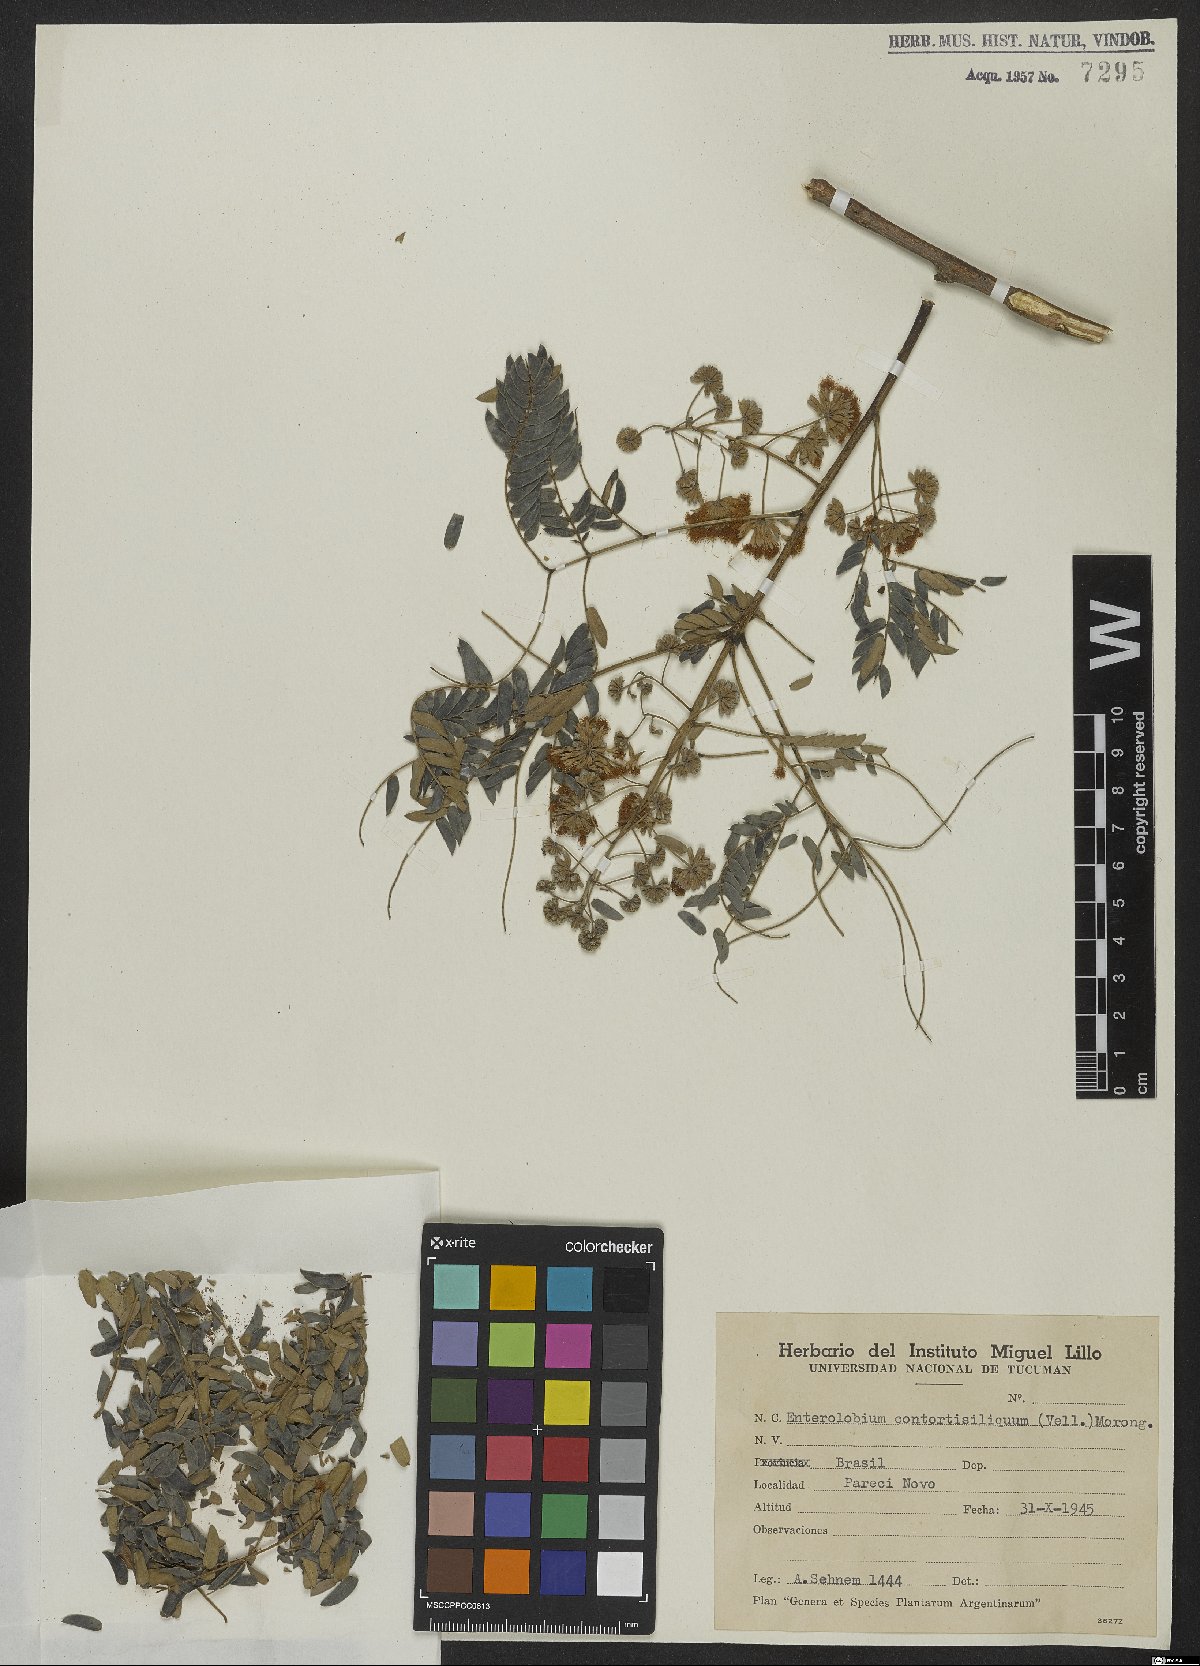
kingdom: Plantae
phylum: Tracheophyta
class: Magnoliopsida
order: Fabales
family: Fabaceae
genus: Enterolobium
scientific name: Enterolobium contortisiliquum
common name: Pacara earpod tree
